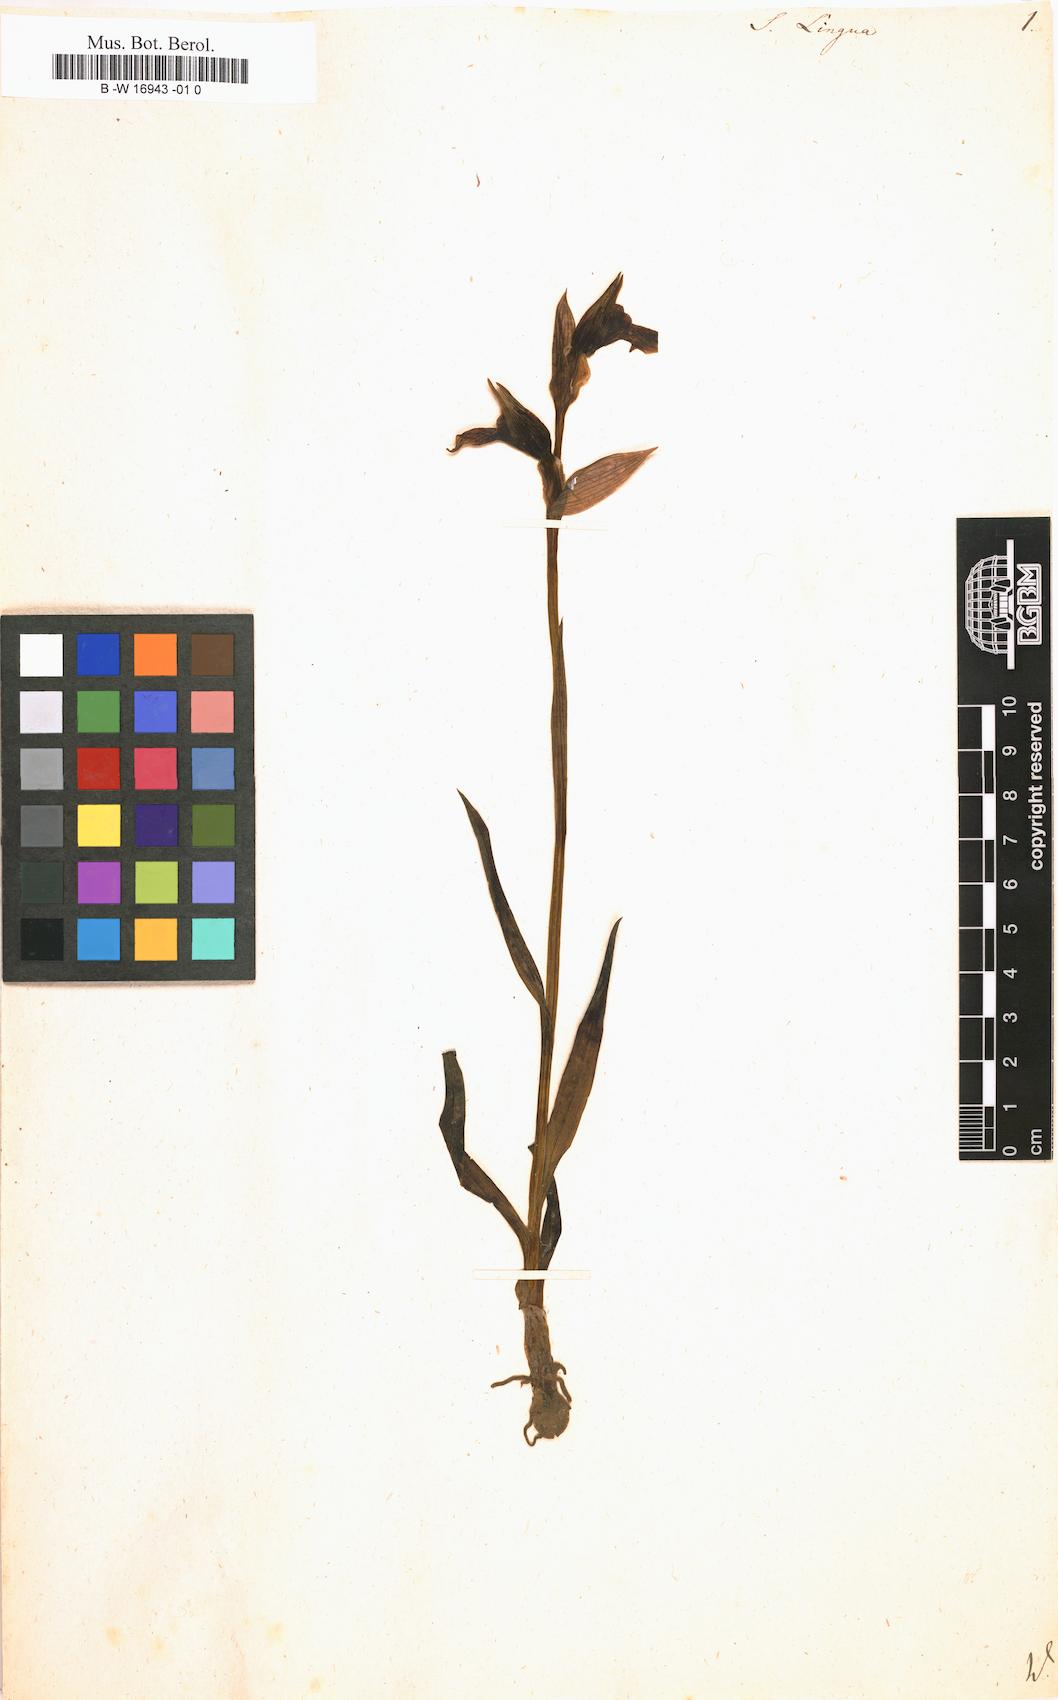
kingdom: Plantae
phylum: Tracheophyta
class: Liliopsida
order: Asparagales
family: Orchidaceae
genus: Ophrys
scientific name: Ophrys fusca
